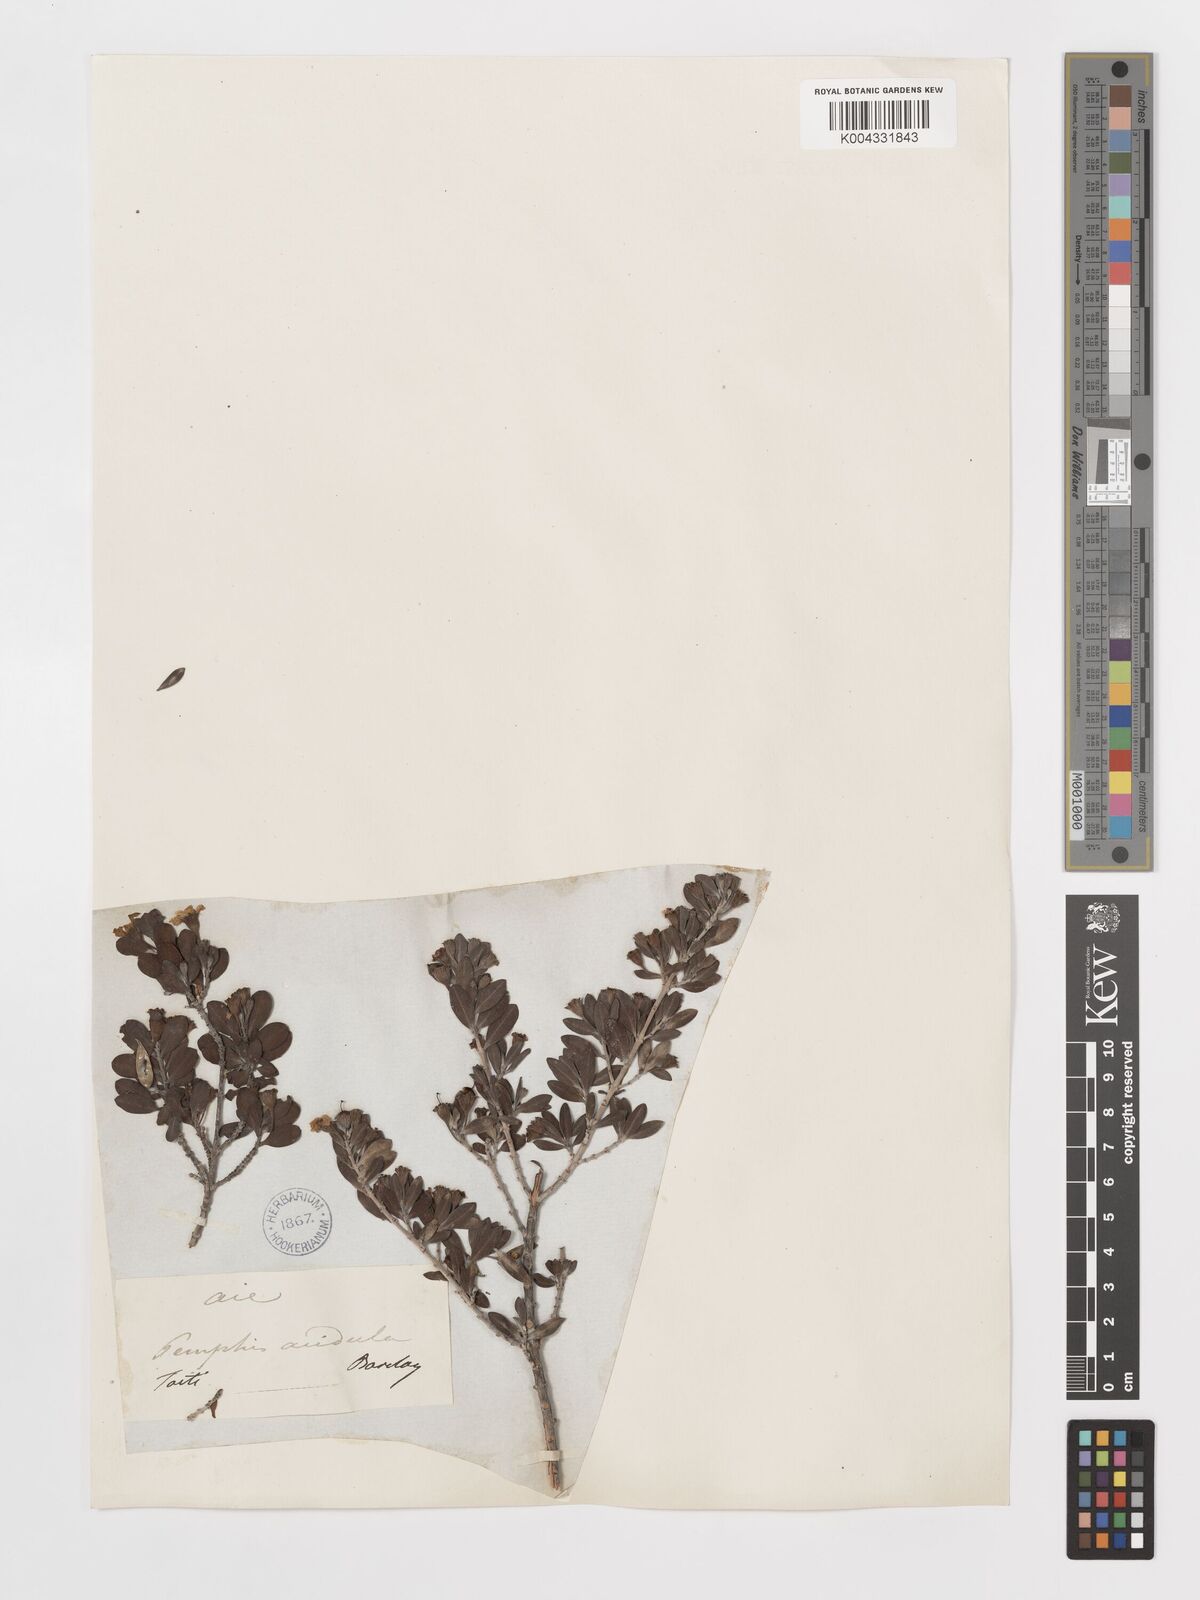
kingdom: Plantae
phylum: Tracheophyta
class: Magnoliopsida
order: Myrtales
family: Lythraceae
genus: Pemphis
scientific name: Pemphis acidula
